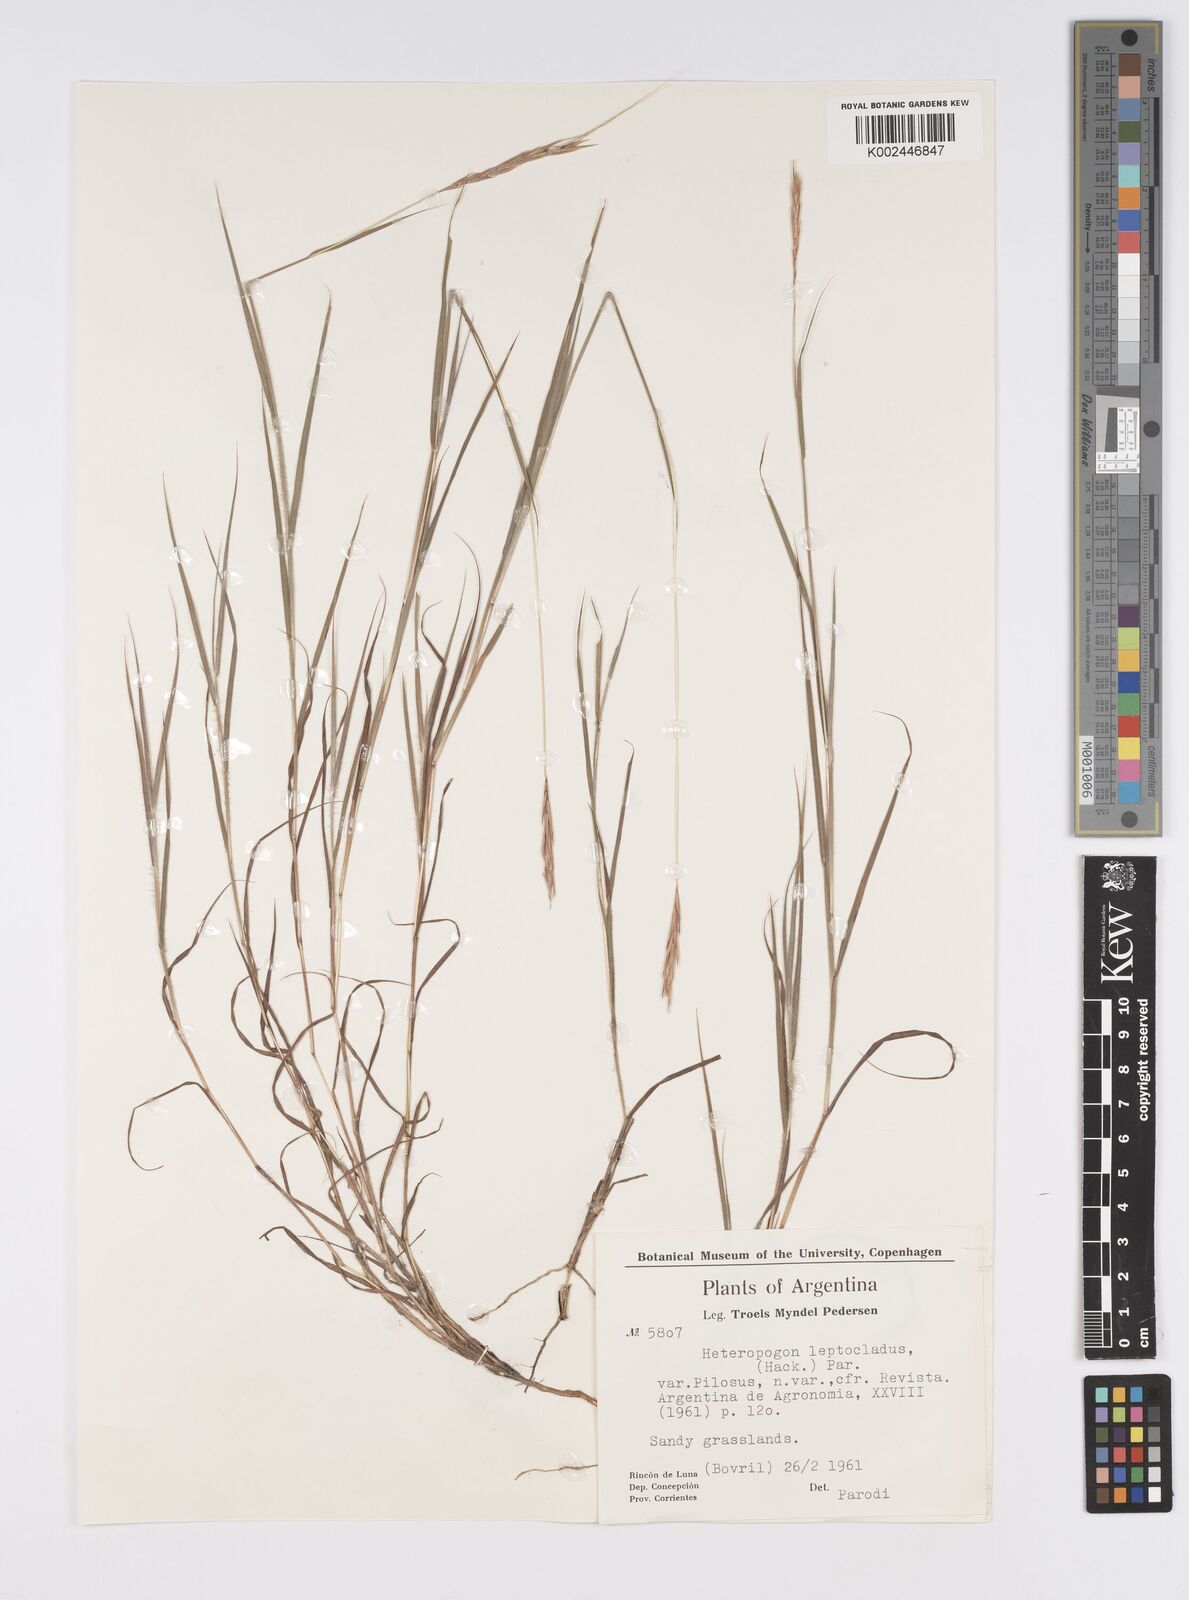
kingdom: Plantae
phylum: Tracheophyta
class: Liliopsida
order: Poales
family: Poaceae
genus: Agenium
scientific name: Agenium leptocladum
